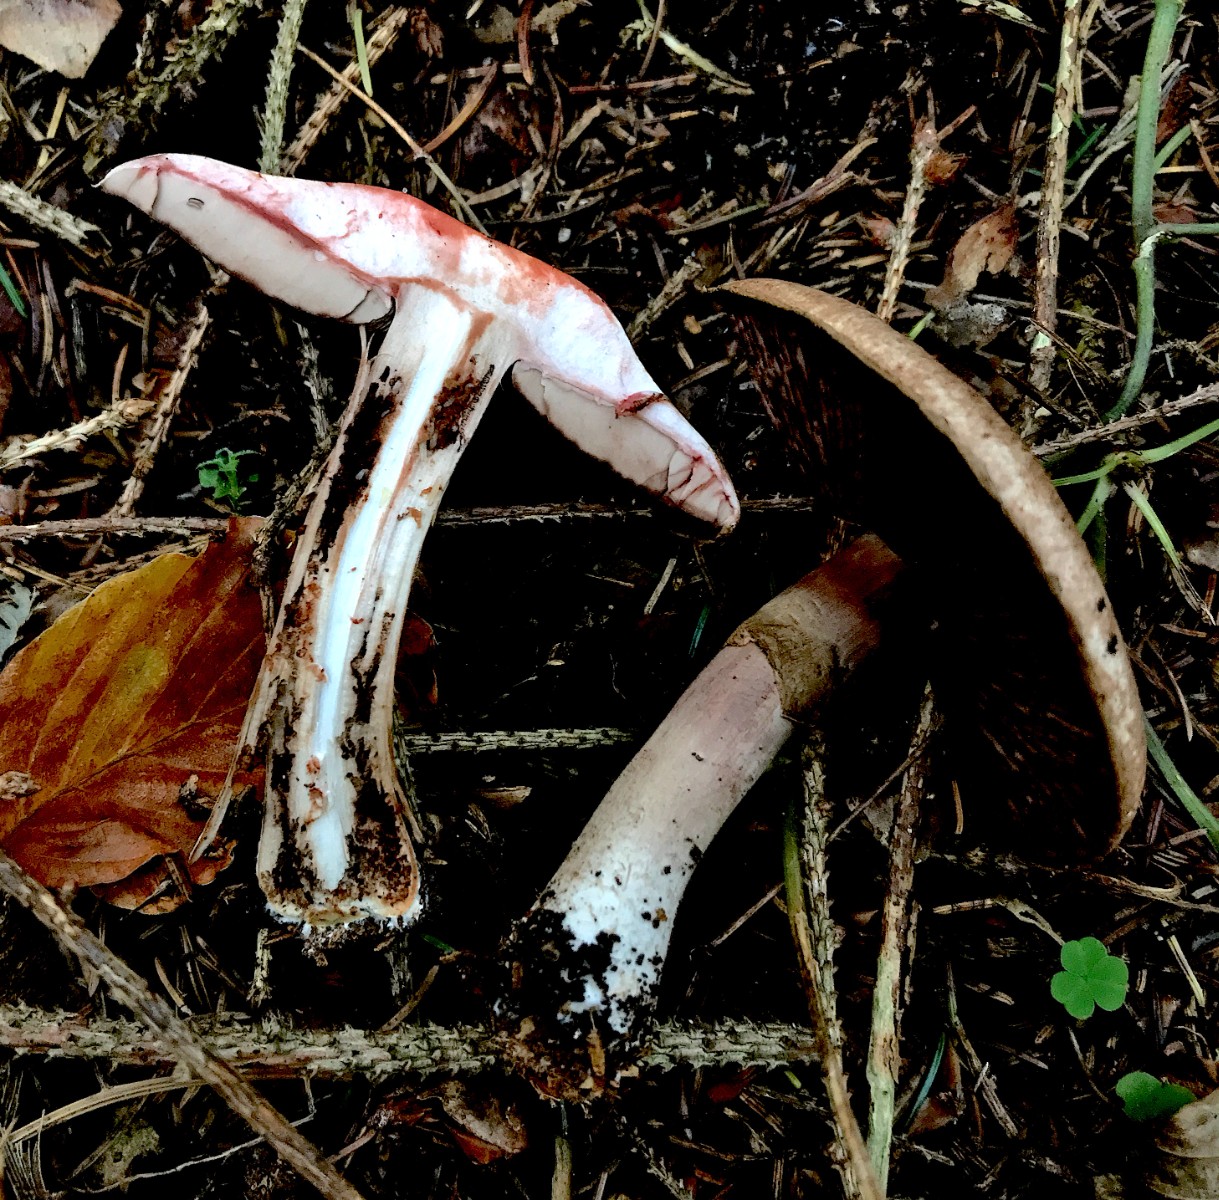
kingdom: Fungi
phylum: Basidiomycota
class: Agaricomycetes
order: Agaricales
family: Agaricaceae
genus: Agaricus
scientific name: Agaricus
